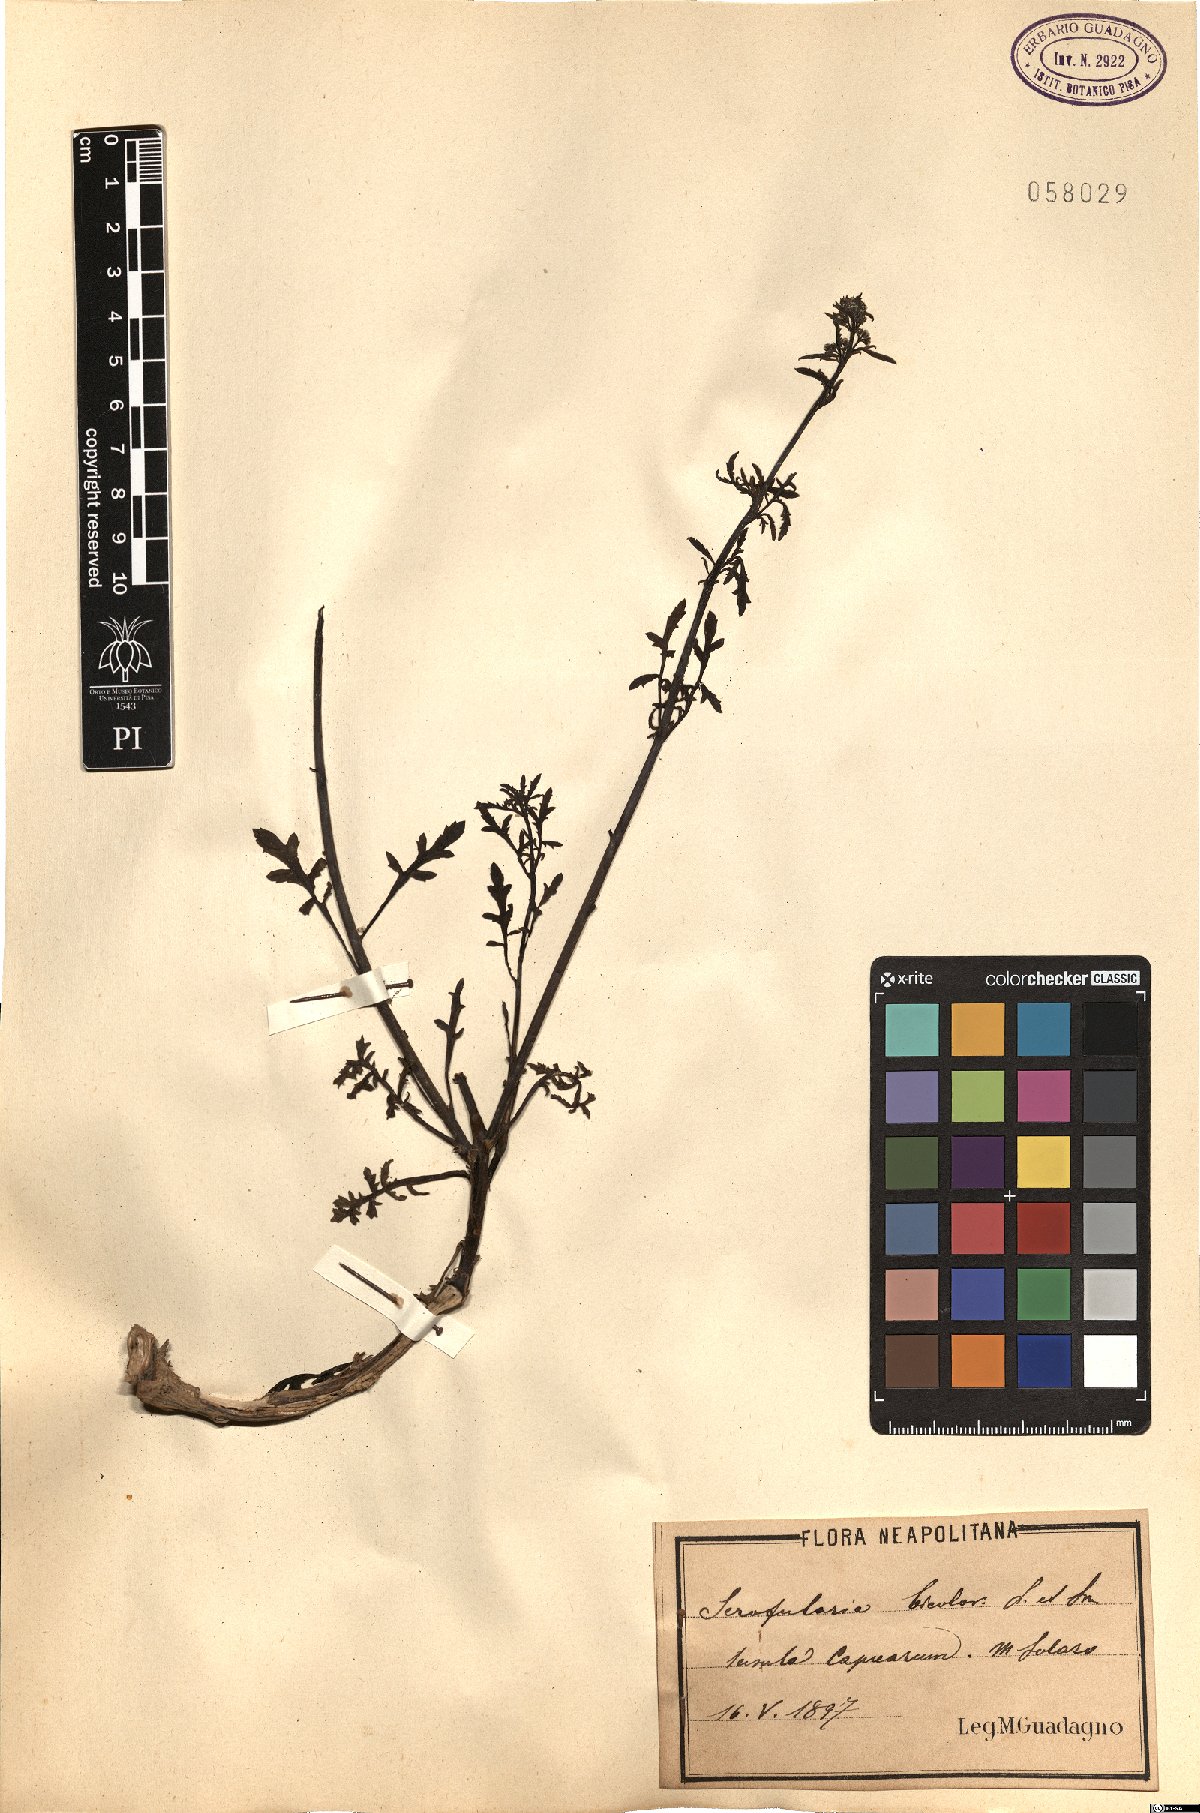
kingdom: Plantae
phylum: Tracheophyta
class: Magnoliopsida
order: Lamiales
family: Scrophulariaceae
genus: Scrophularia
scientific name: Scrophularia canina
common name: French figwort
